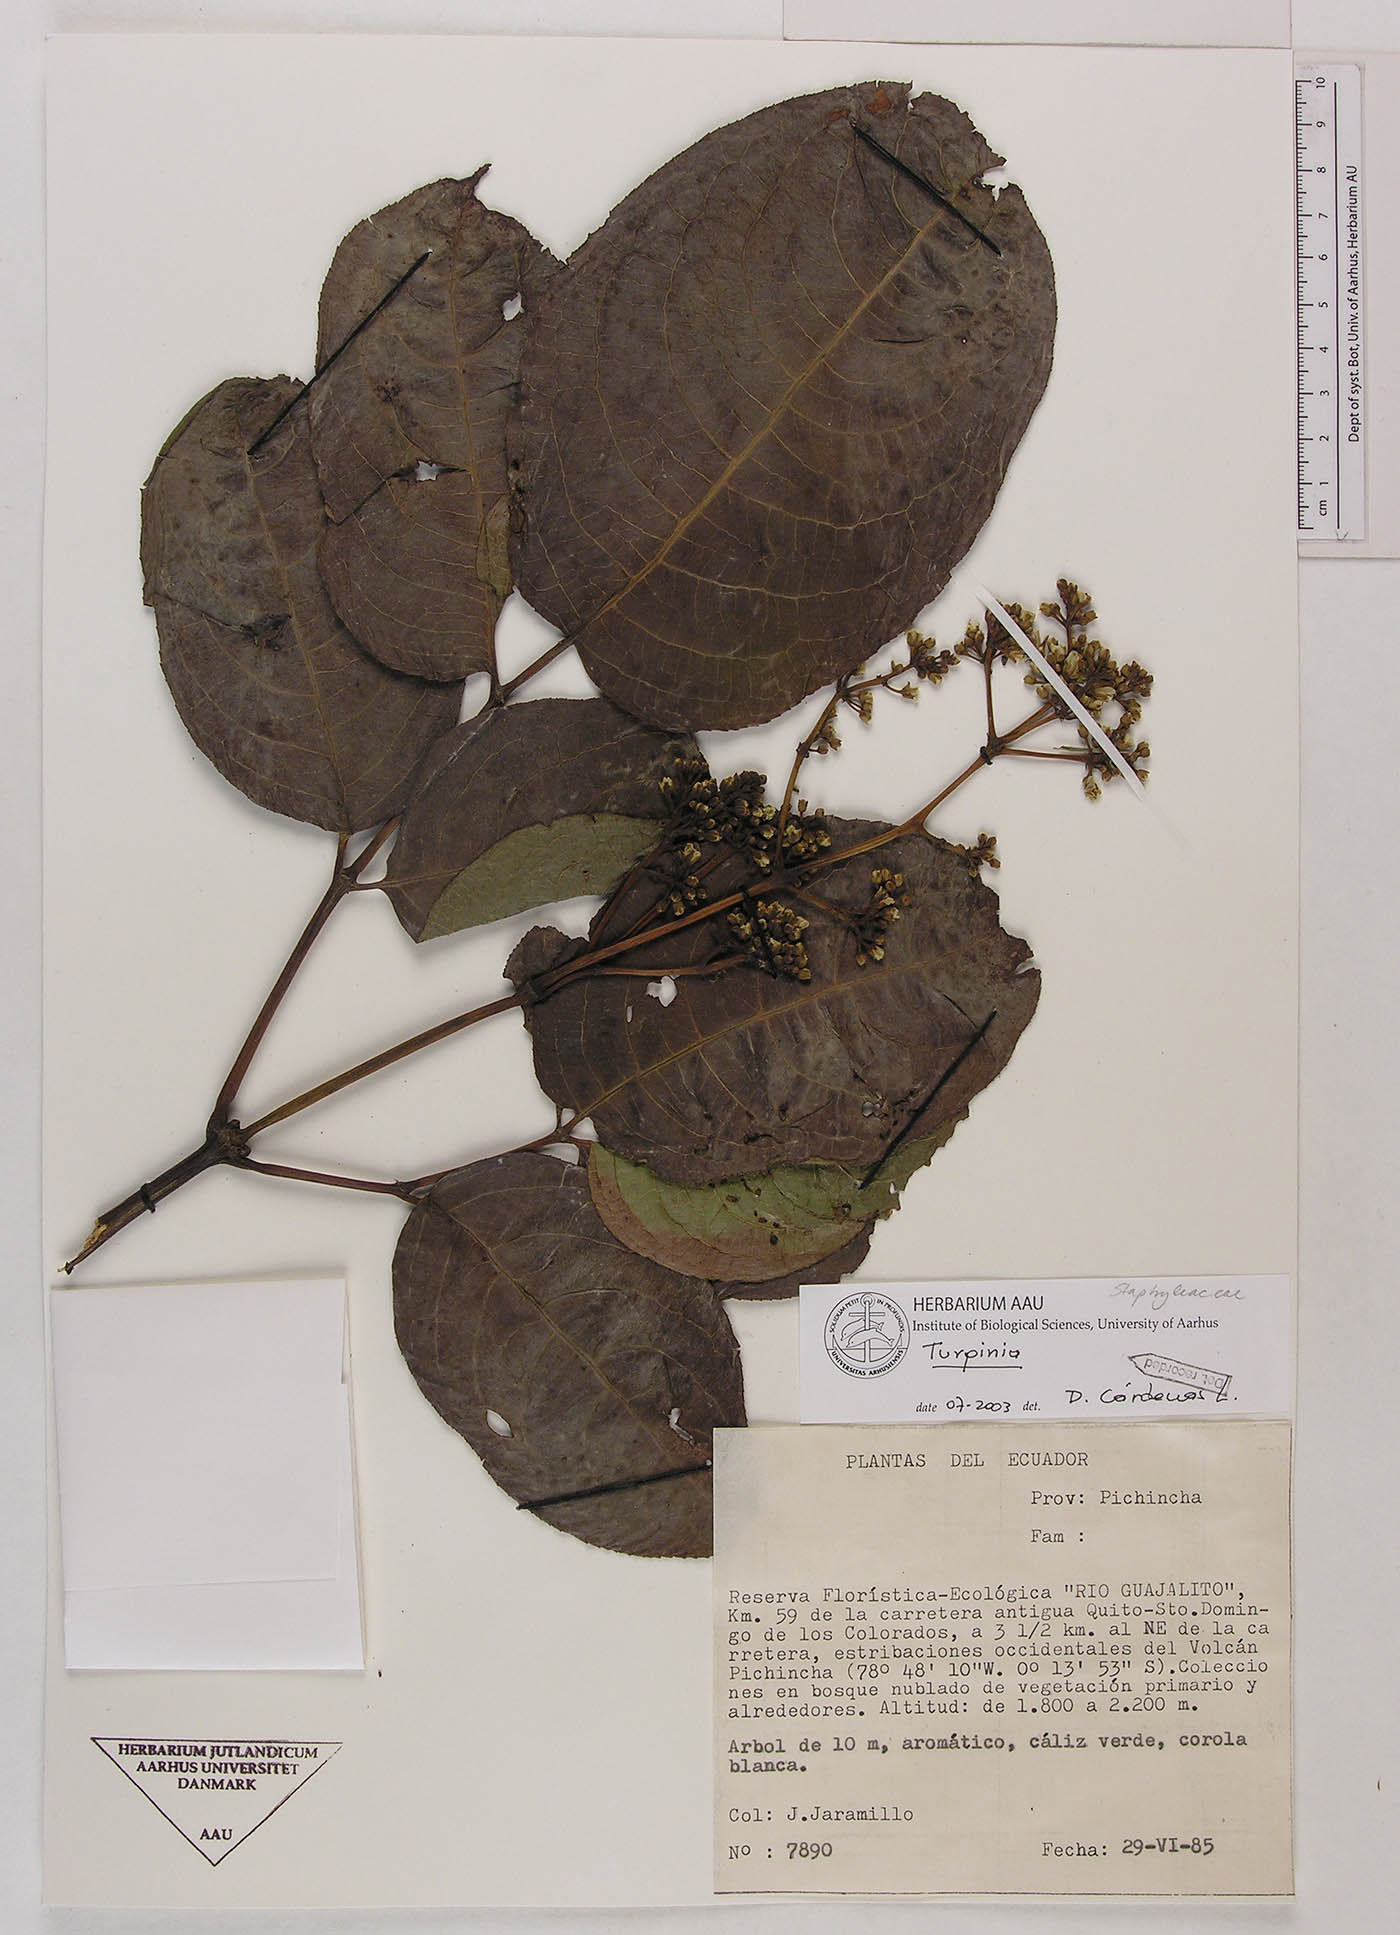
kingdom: Plantae
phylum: Tracheophyta
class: Magnoliopsida
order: Crossosomatales
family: Staphyleaceae
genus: Turpinia
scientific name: Turpinia megaphylla
